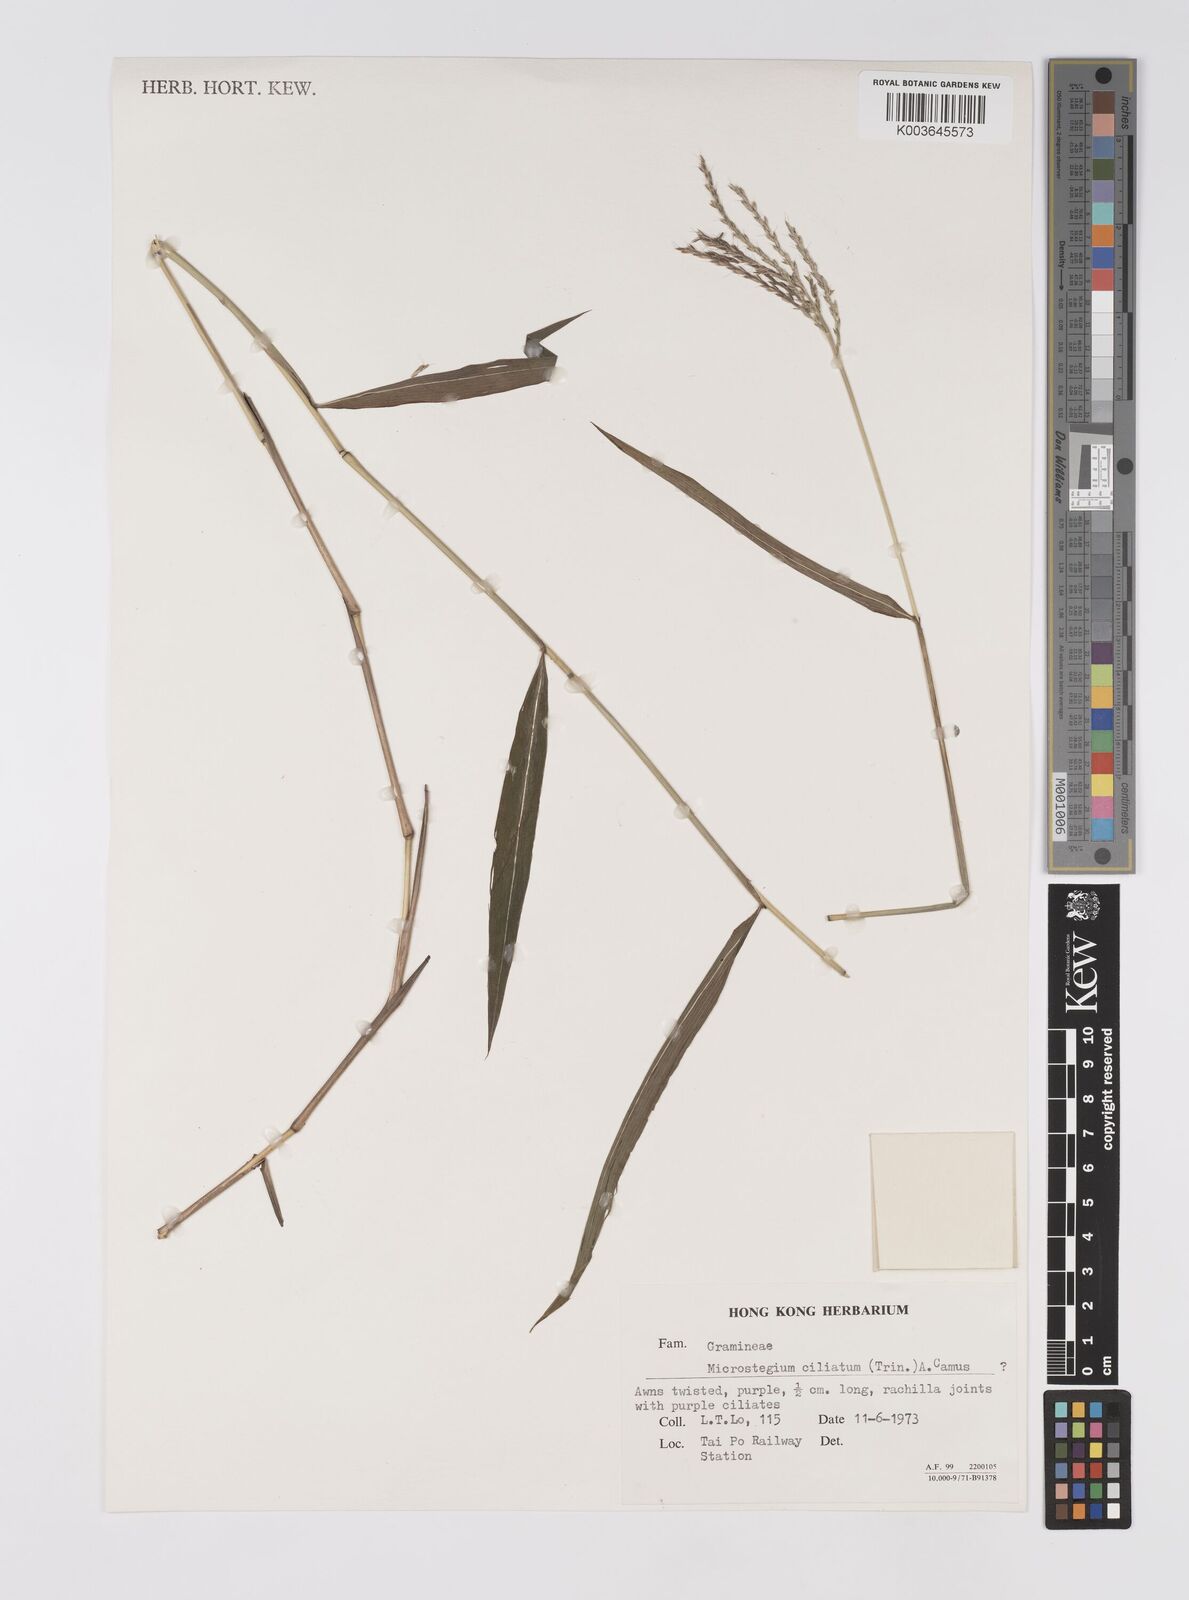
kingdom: Plantae
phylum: Tracheophyta
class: Liliopsida
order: Poales
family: Poaceae
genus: Microstegium
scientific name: Microstegium fasciculatum
